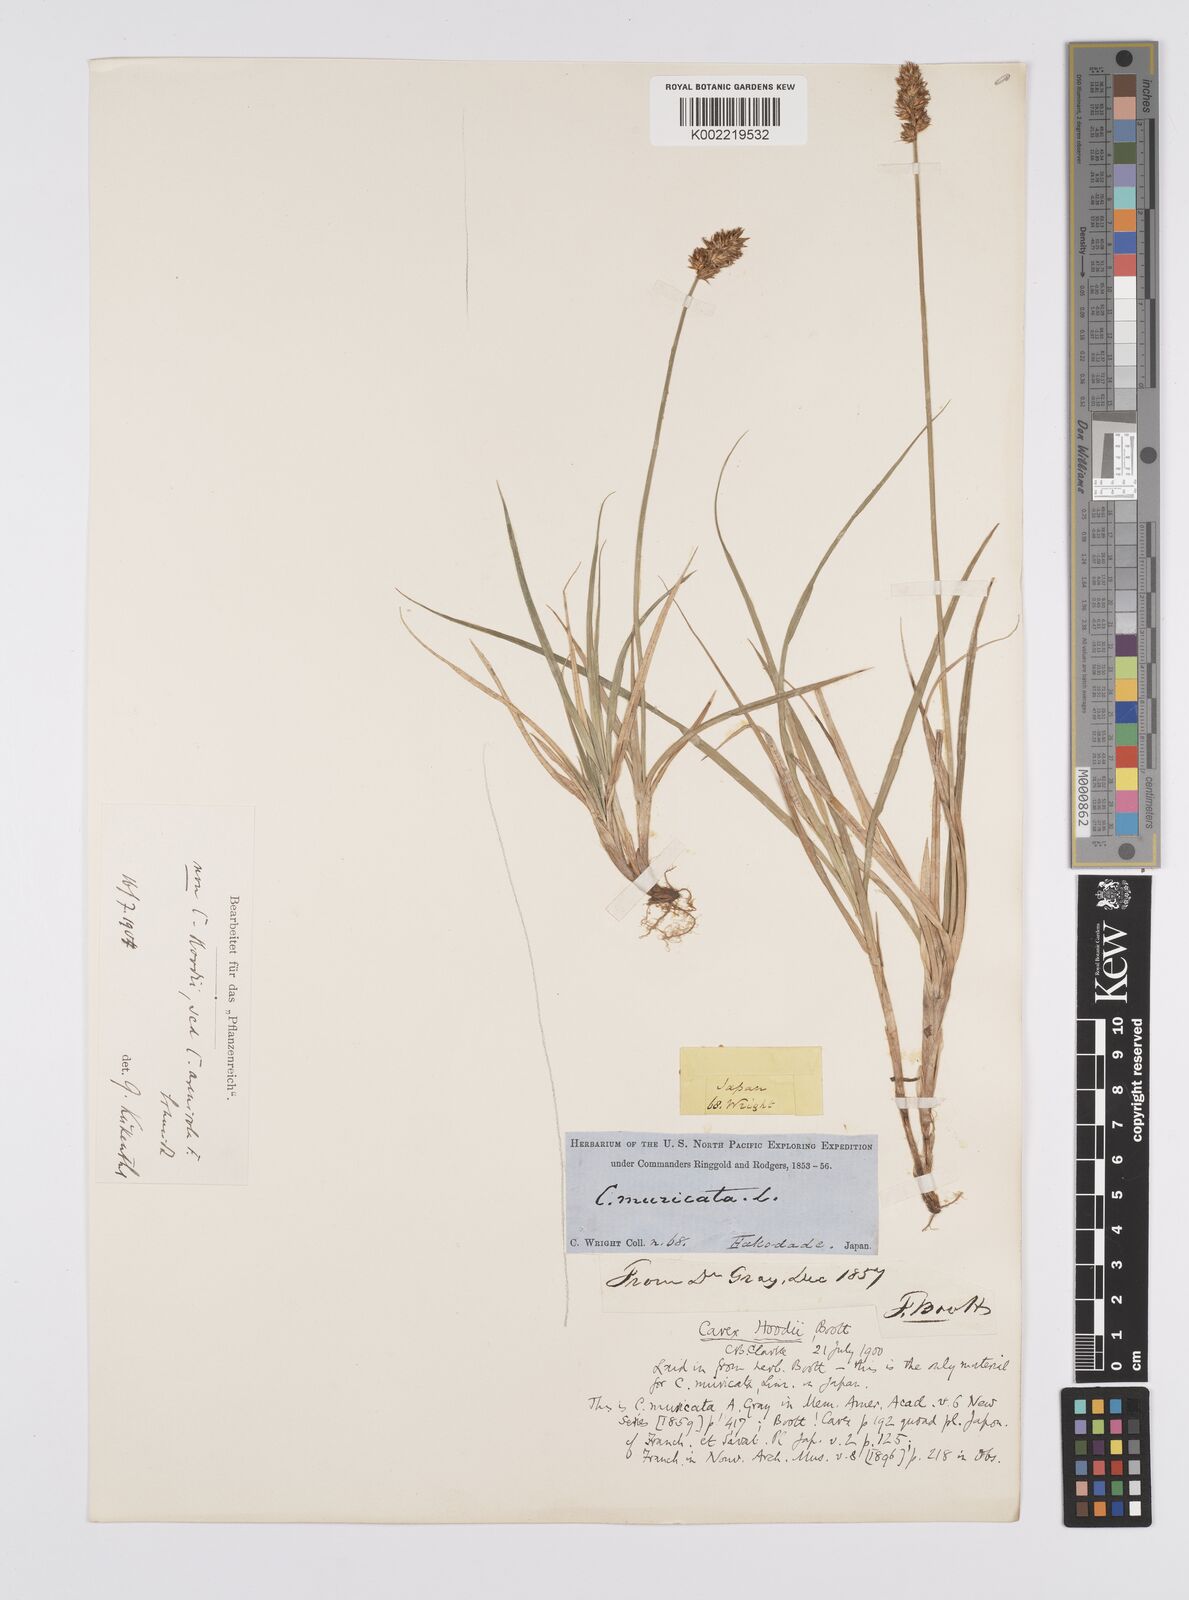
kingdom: Plantae
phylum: Tracheophyta
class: Liliopsida
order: Poales
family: Cyperaceae
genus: Carex
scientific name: Carex hoodii
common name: Hood's sedge
